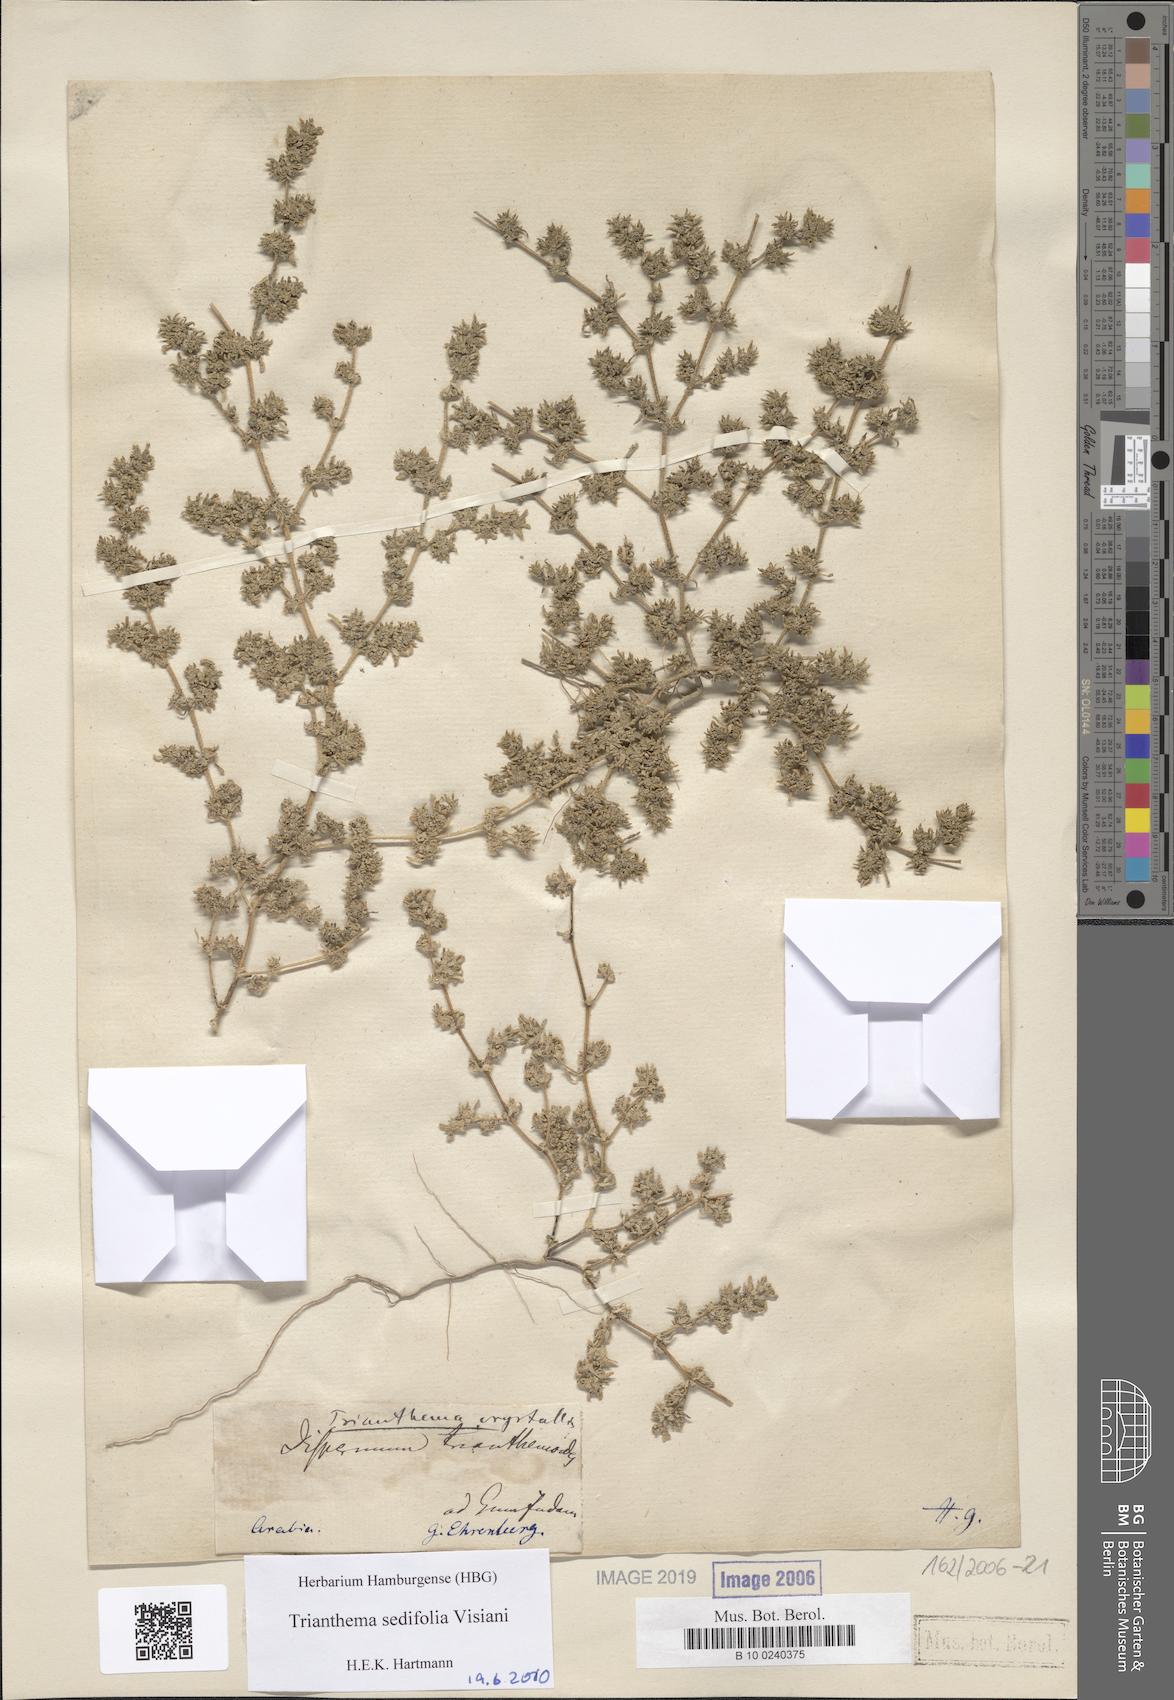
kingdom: Plantae
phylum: Tracheophyta
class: Magnoliopsida
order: Caryophyllales
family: Aizoaceae
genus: Trianthema
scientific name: Trianthema triquetrum
